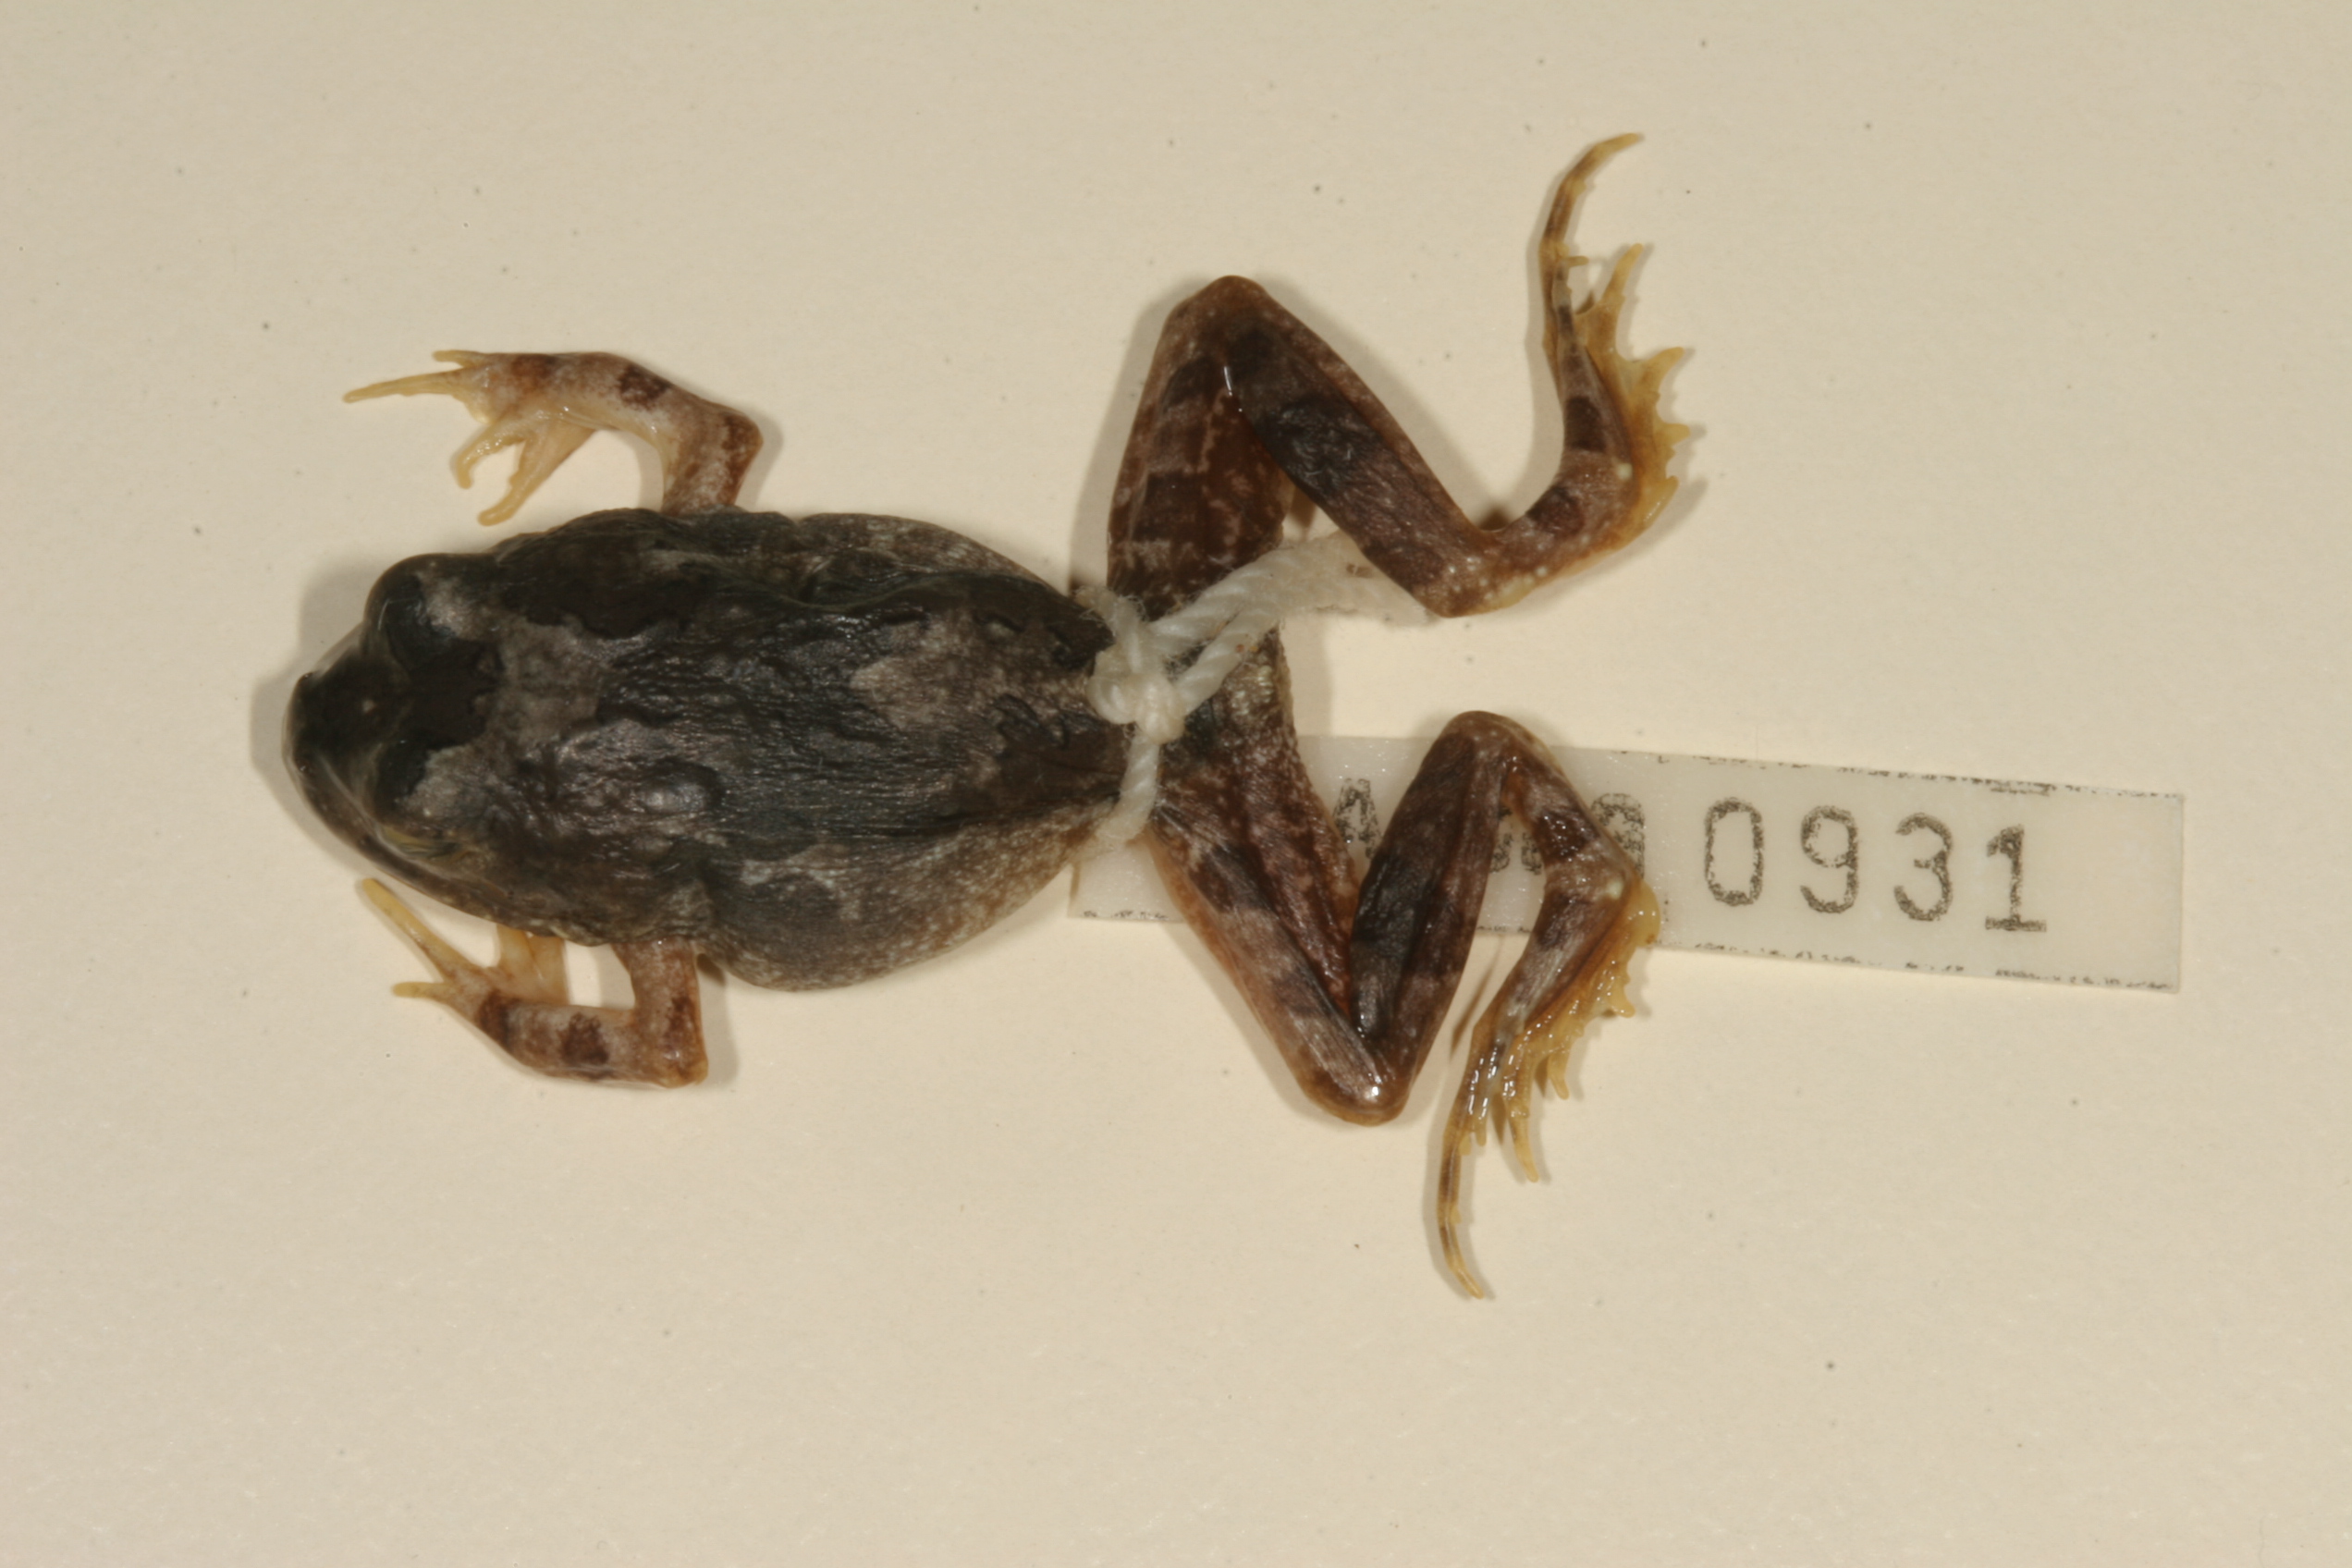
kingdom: Animalia
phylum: Chordata
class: Amphibia
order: Anura
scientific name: Anura
